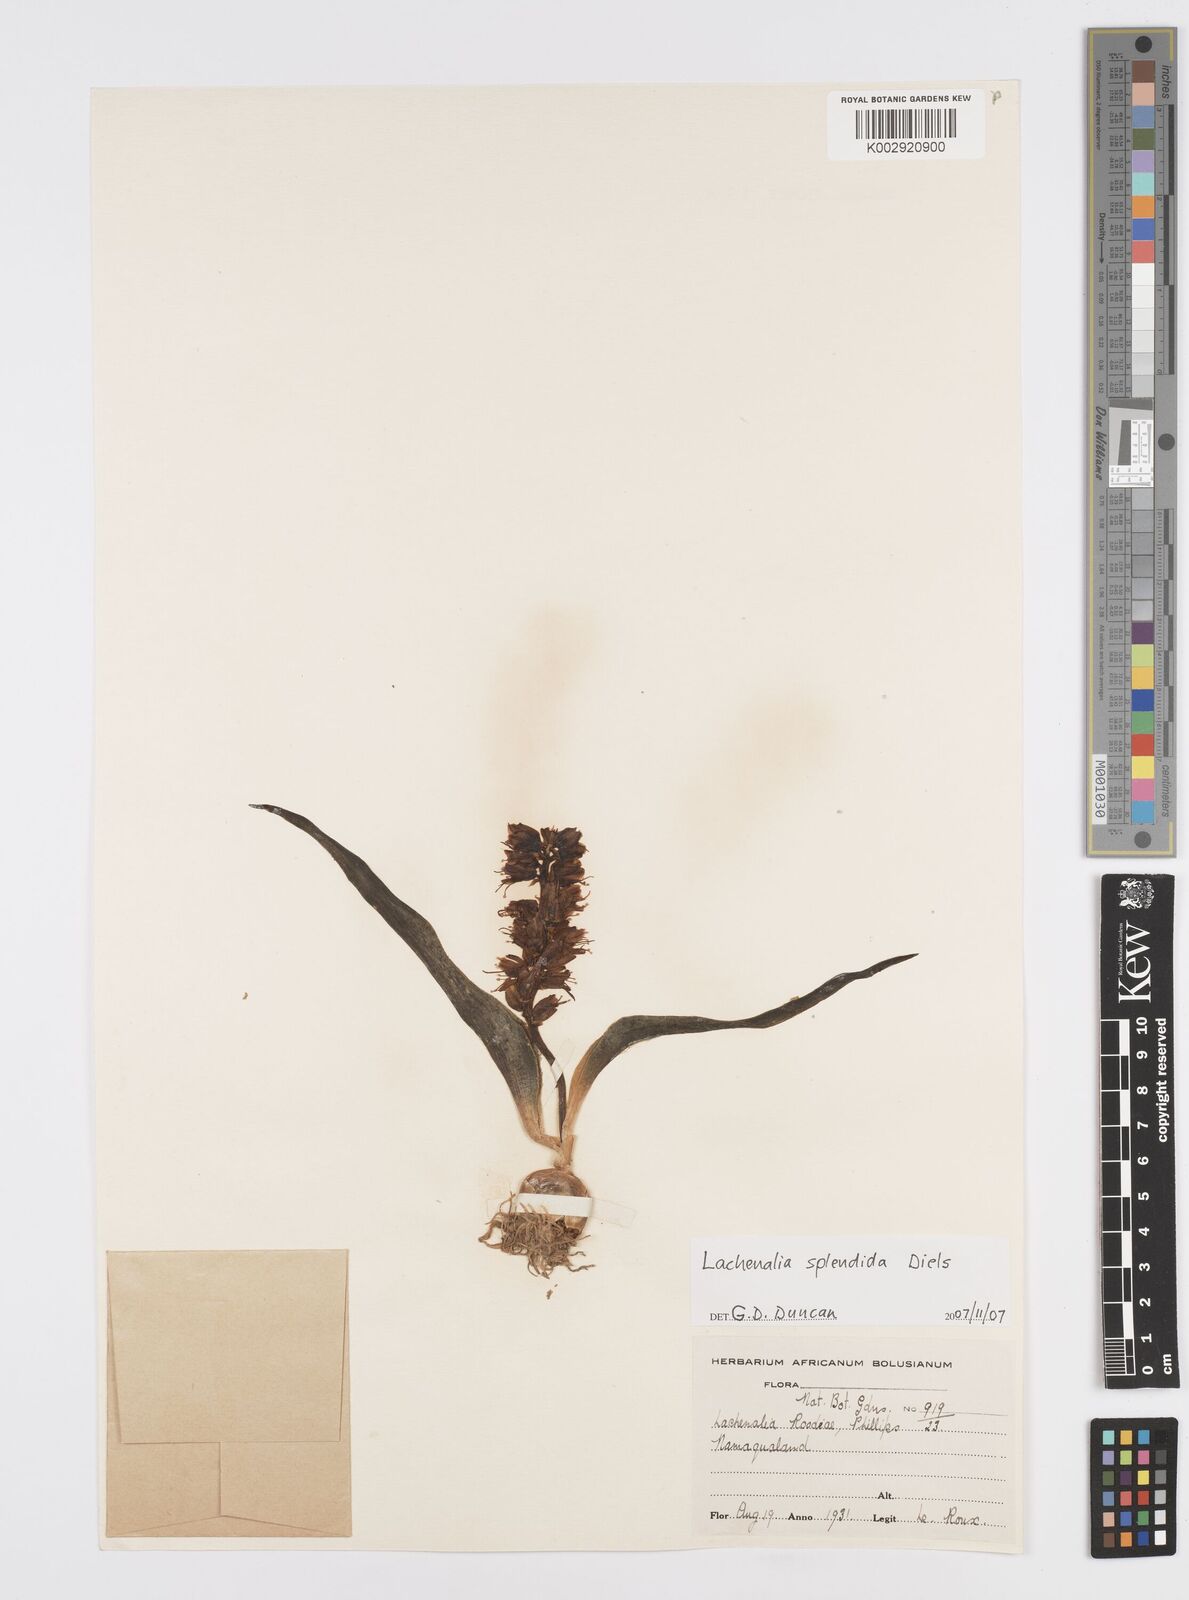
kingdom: Plantae
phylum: Tracheophyta
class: Liliopsida
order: Asparagales
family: Asparagaceae
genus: Lachenalia
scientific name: Lachenalia splendida
